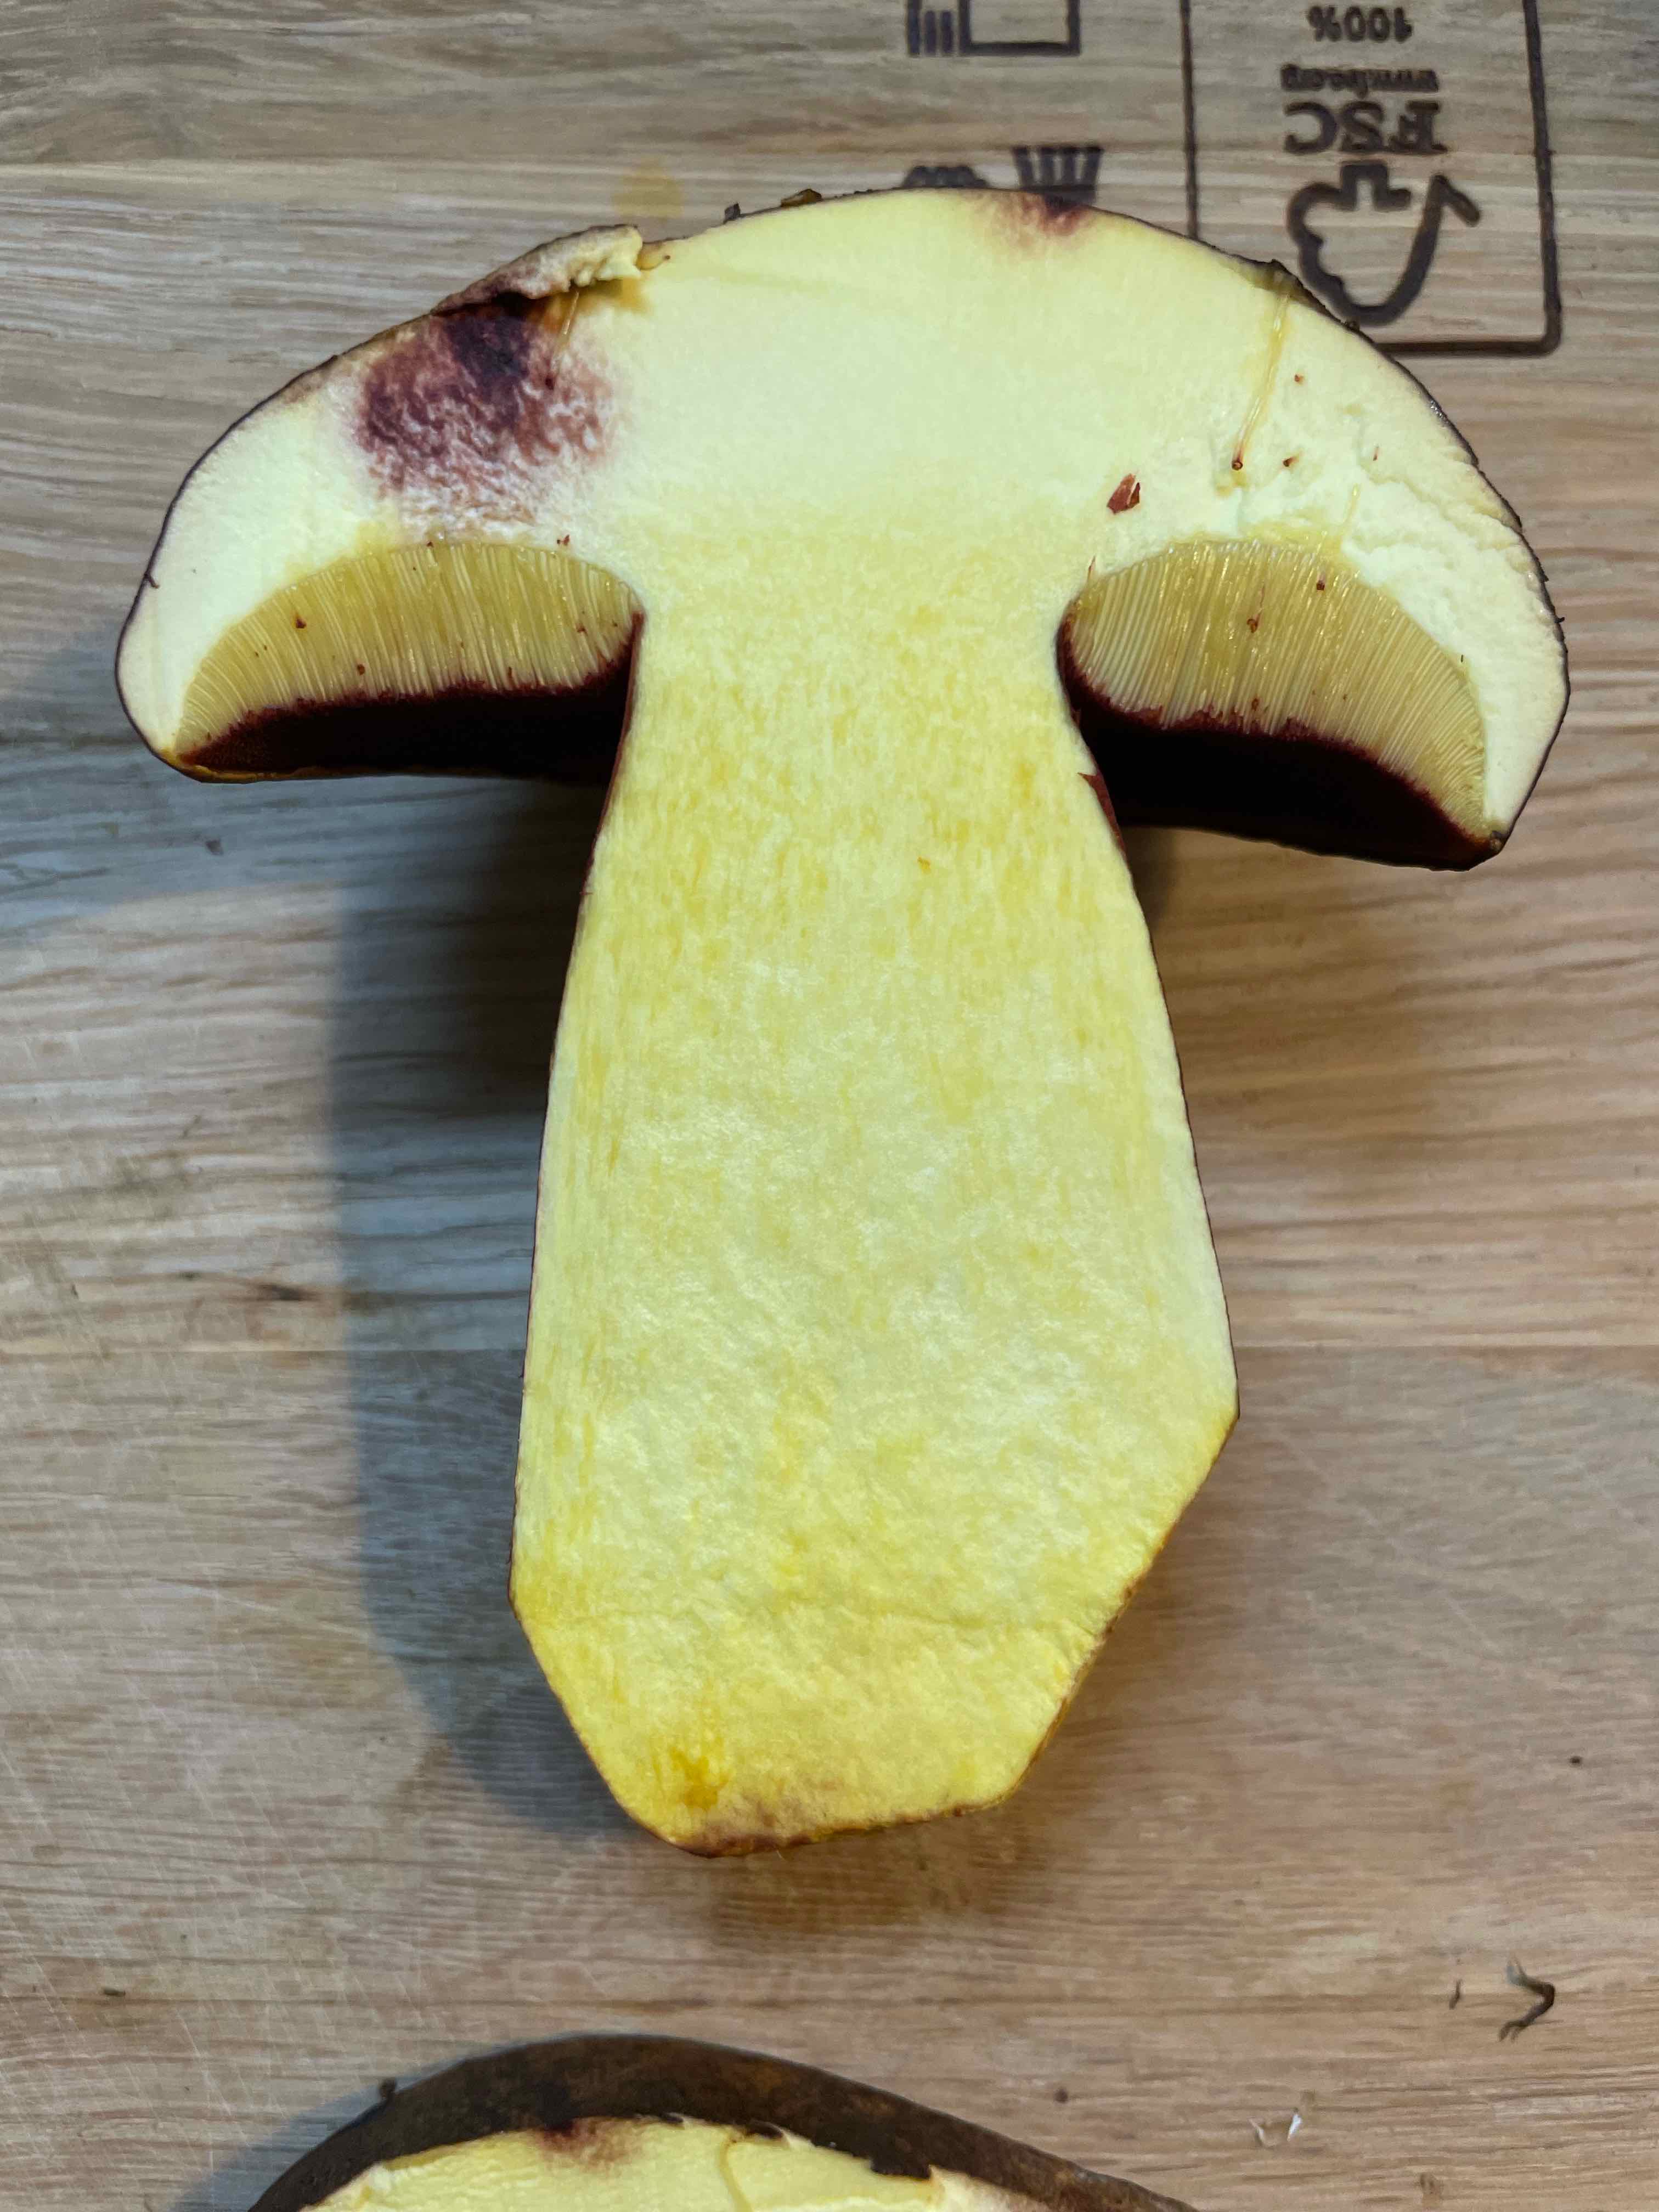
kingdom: Fungi
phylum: Basidiomycota
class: Agaricomycetes
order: Boletales
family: Boletaceae
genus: Neoboletus
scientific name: Neoboletus erythropus
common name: punktstokket indigorørhat
